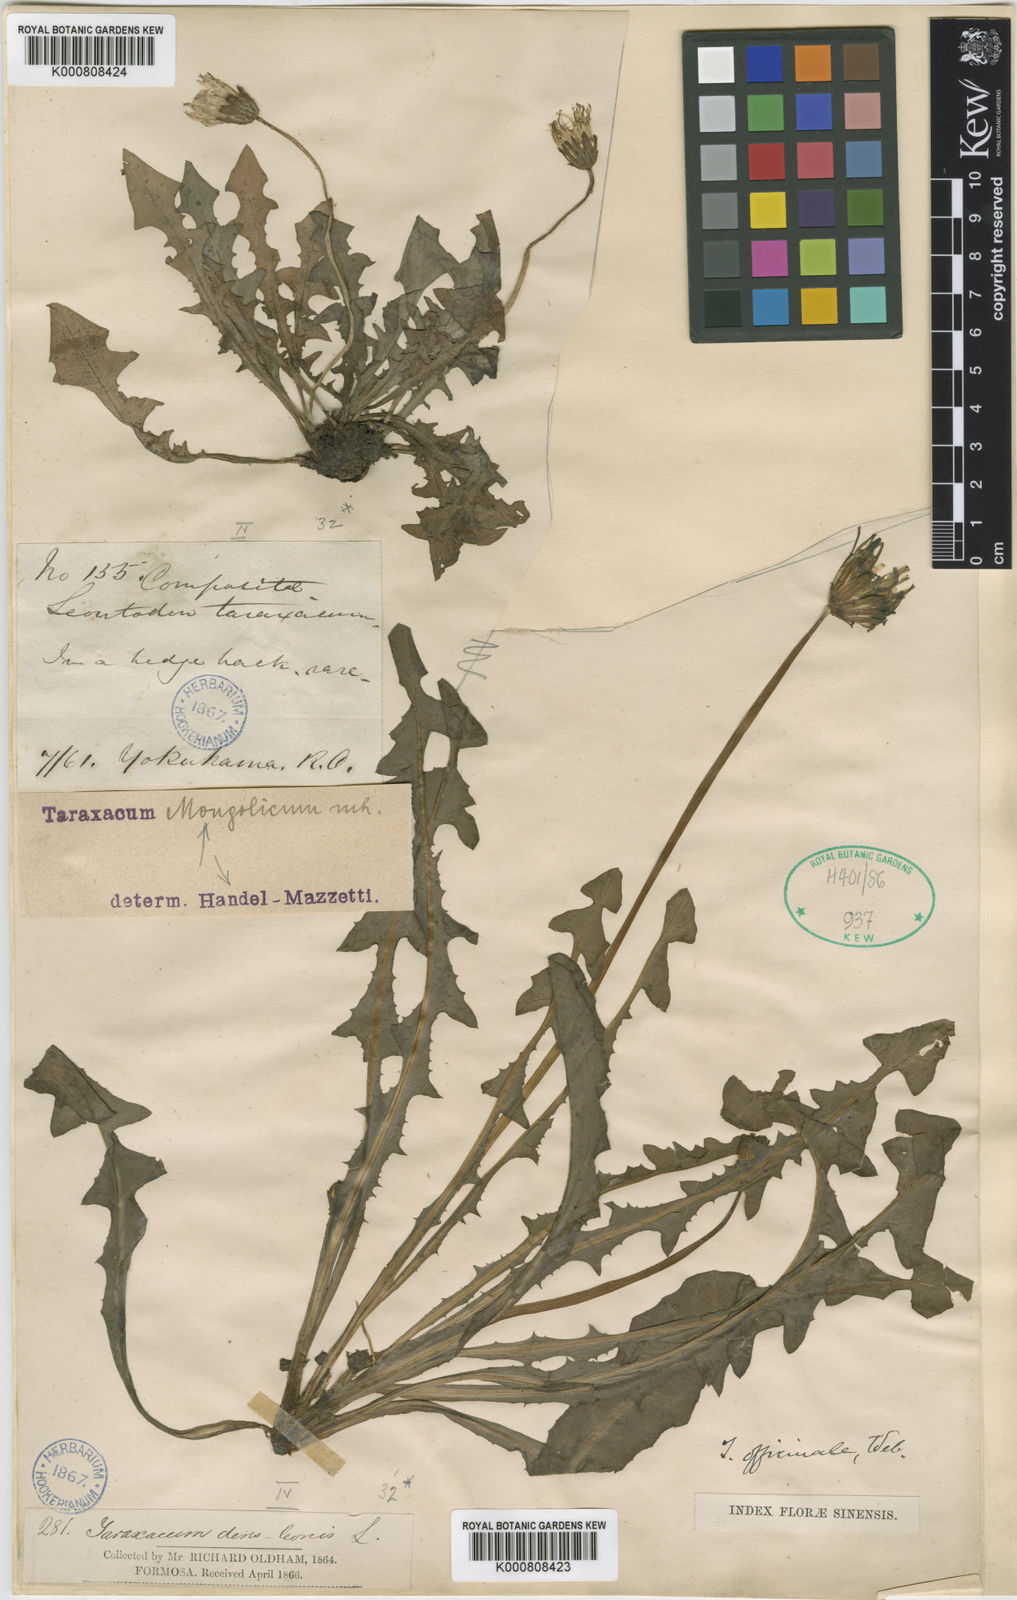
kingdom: Plantae
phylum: Tracheophyta
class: Magnoliopsida
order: Asterales
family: Asteraceae
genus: Taraxacum
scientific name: Taraxacum mongolicum
